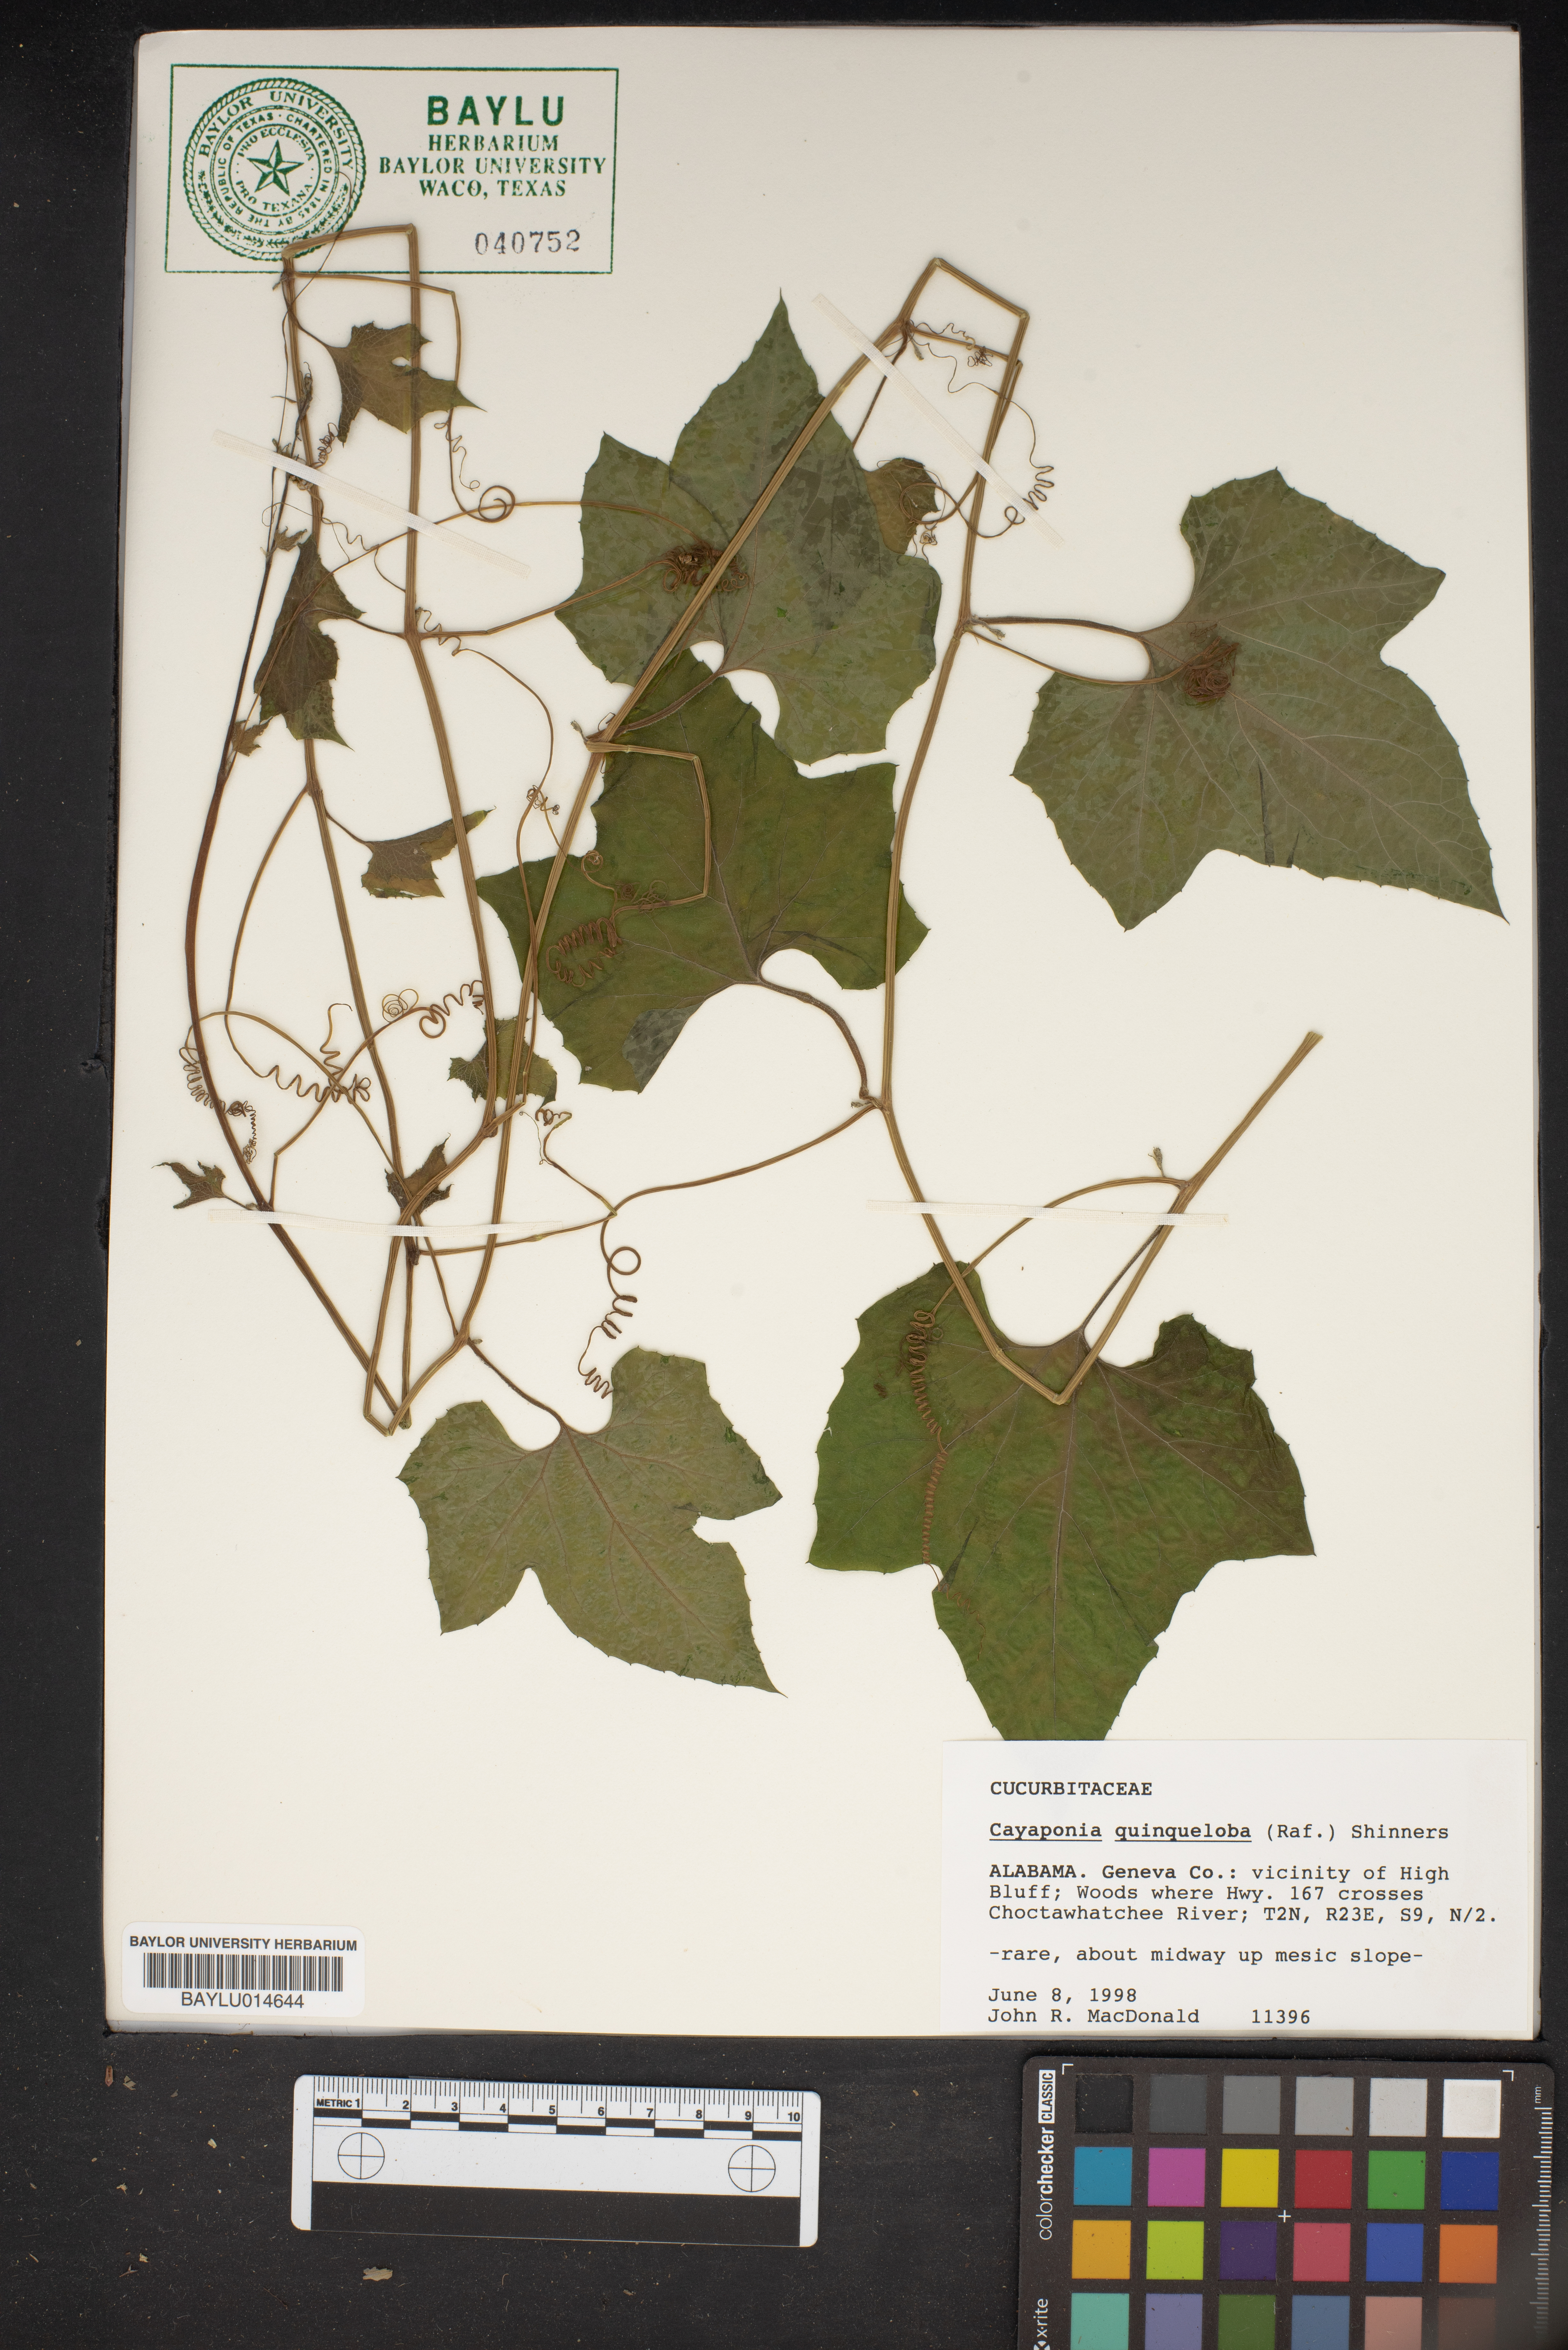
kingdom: Plantae
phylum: Tracheophyta
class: Magnoliopsida
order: Cucurbitales
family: Cucurbitaceae
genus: Cayaponia
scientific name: Cayaponia quinqueloba
